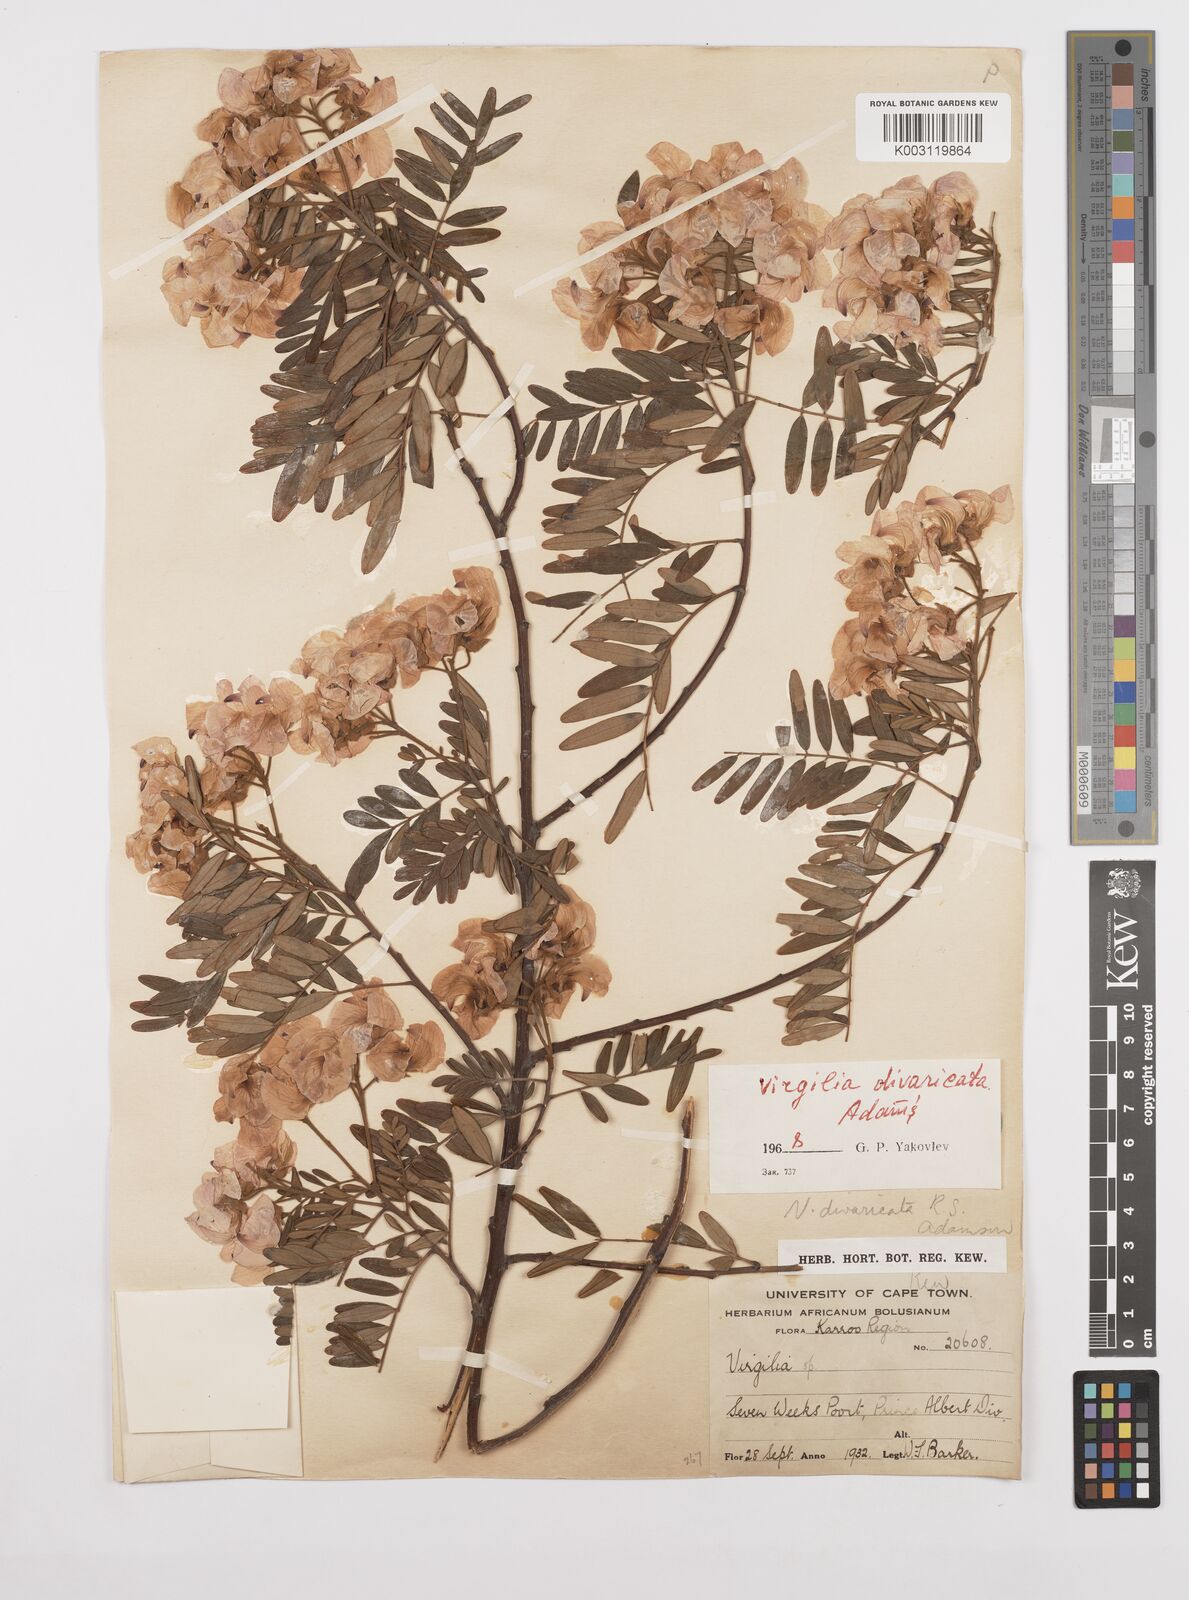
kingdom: Plantae
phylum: Tracheophyta
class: Magnoliopsida
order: Fabales
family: Fabaceae
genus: Virgilia
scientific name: Virgilia divaricata
